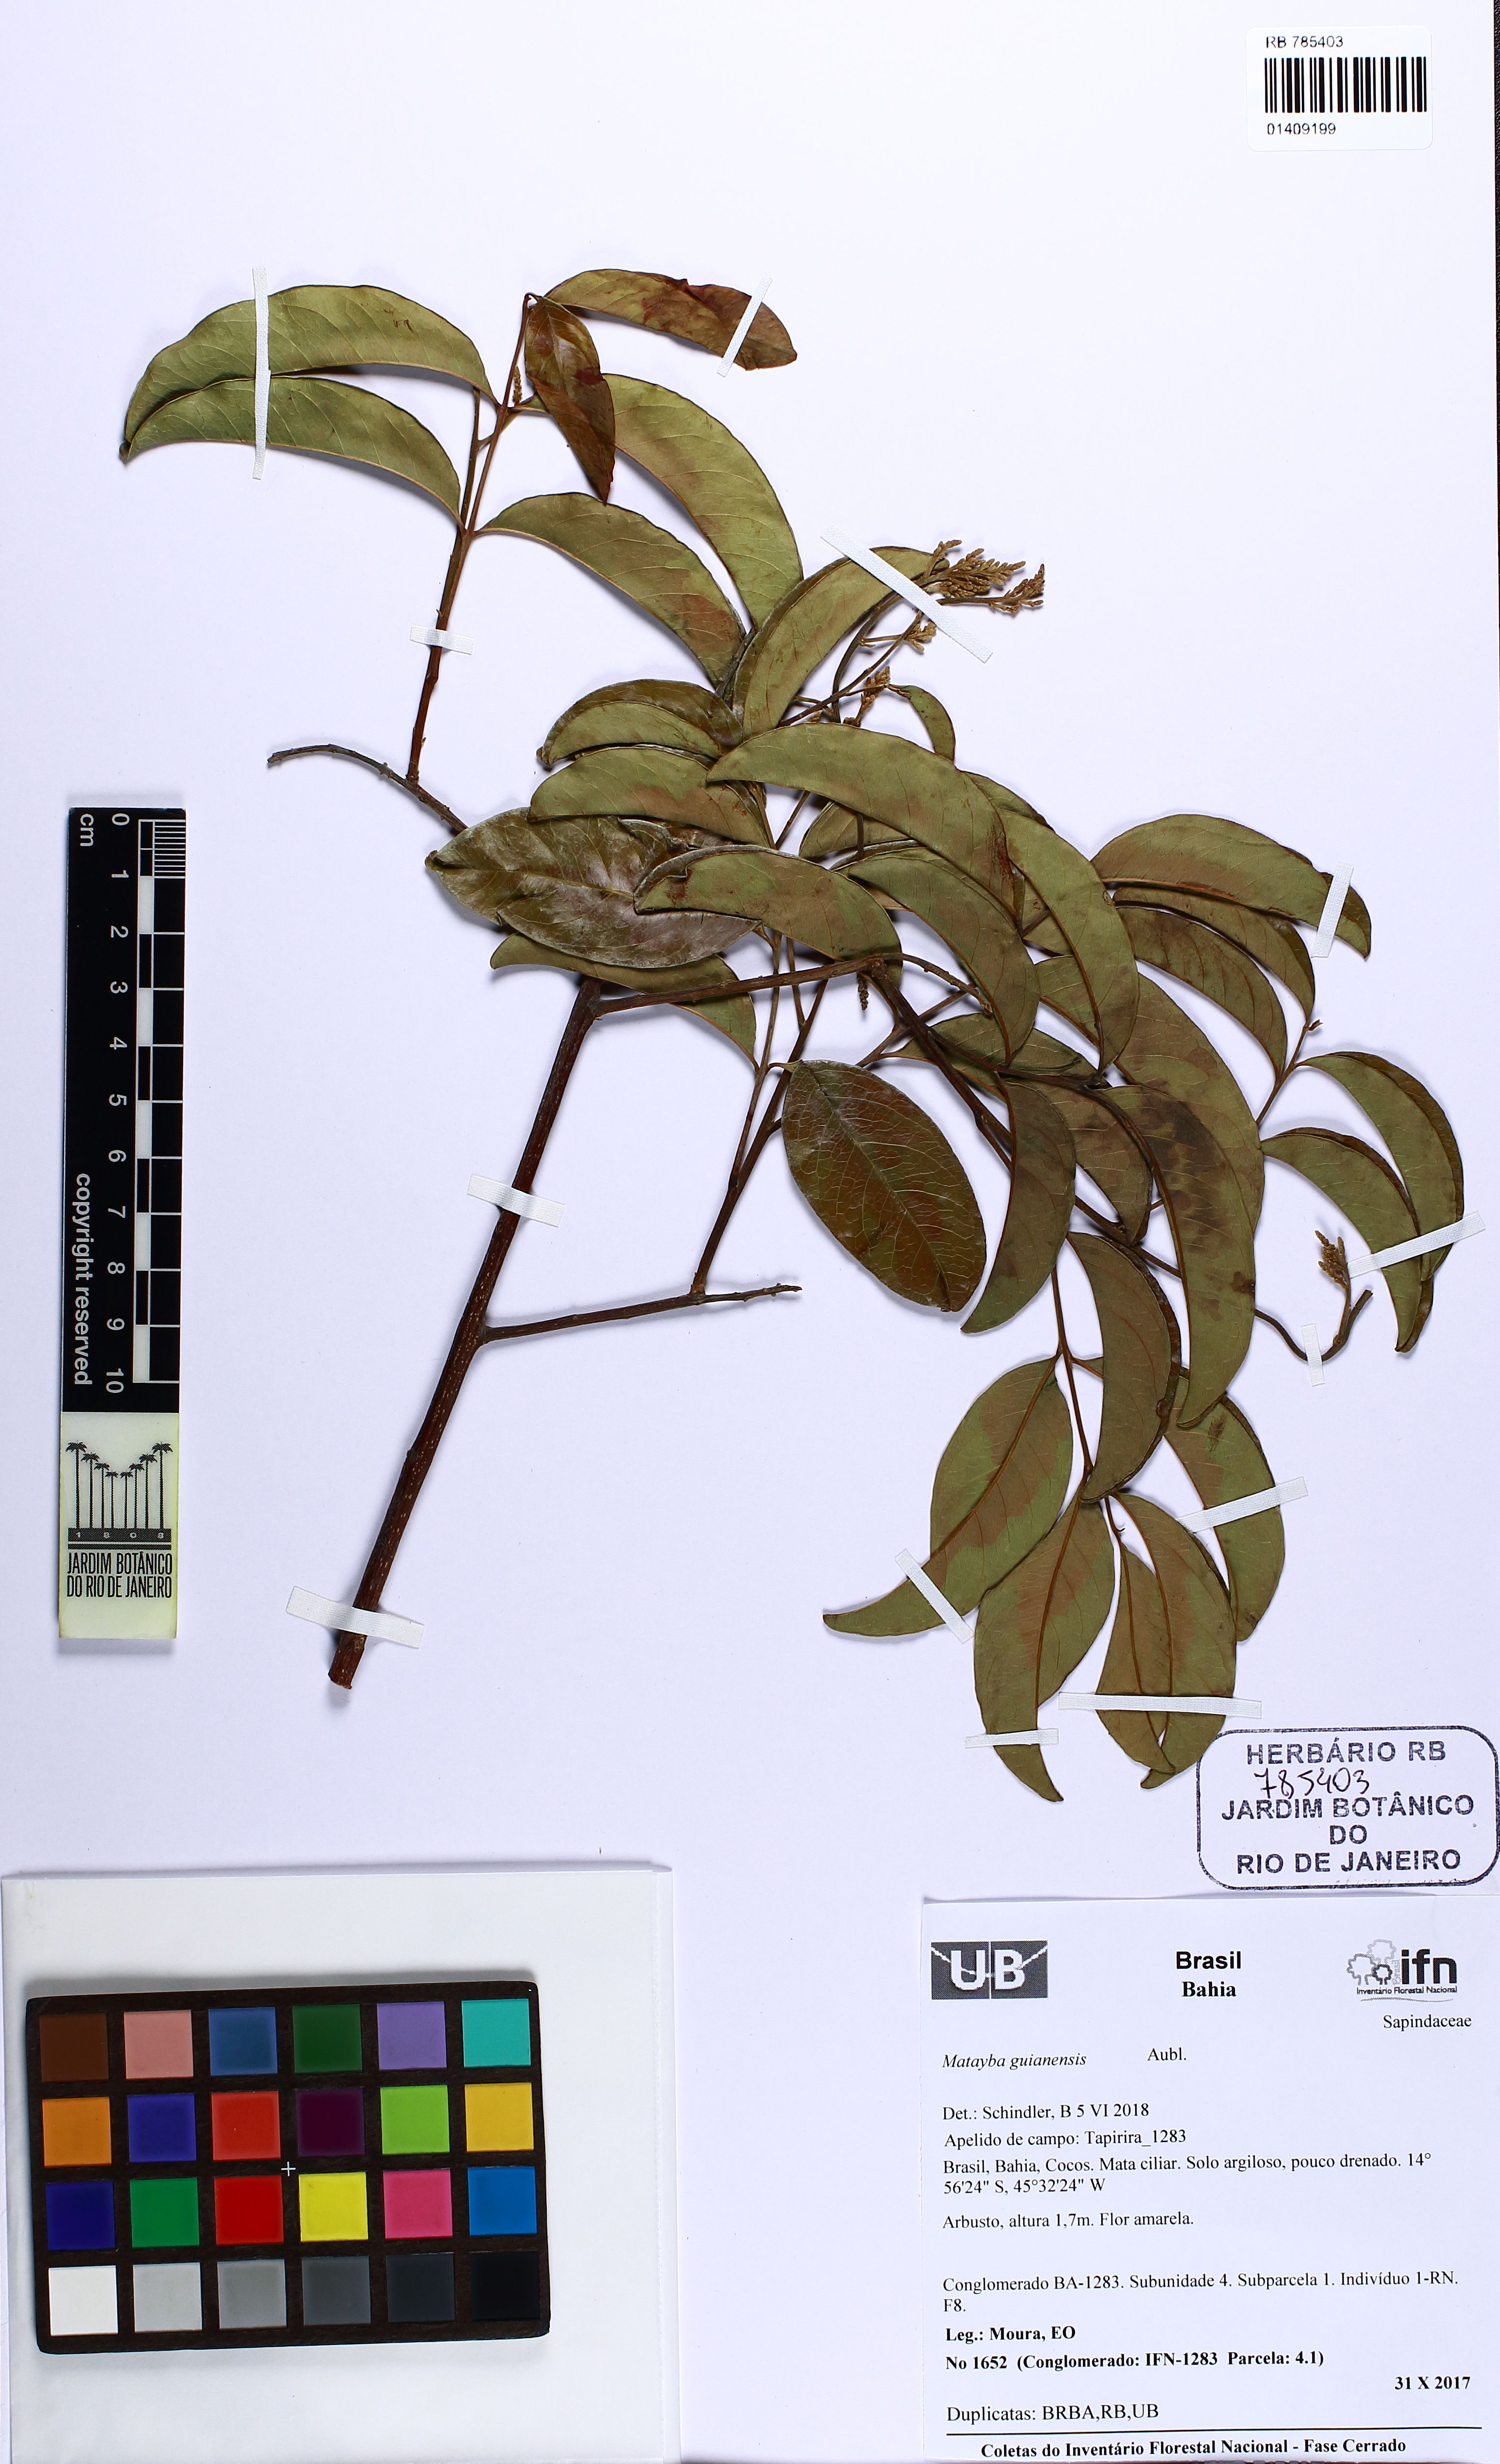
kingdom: Plantae
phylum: Tracheophyta
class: Magnoliopsida
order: Sapindales
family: Sapindaceae
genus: Matayba
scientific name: Matayba guianensis
